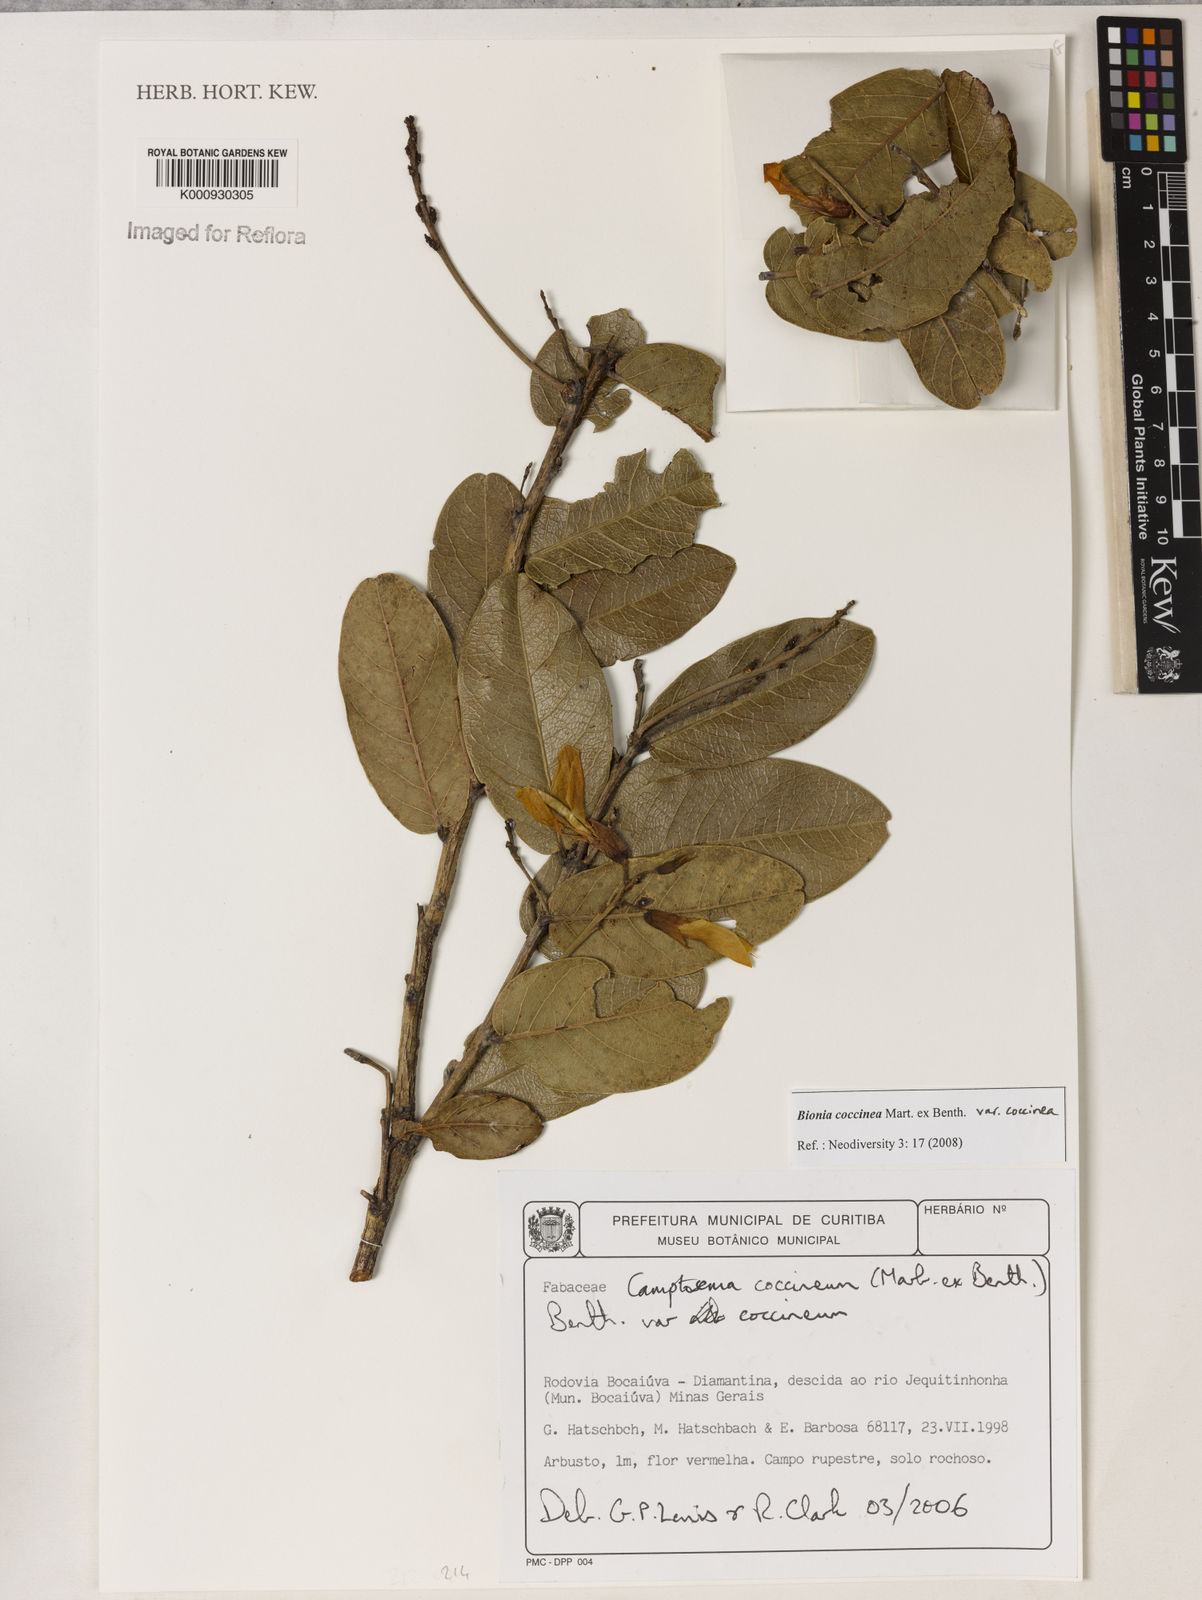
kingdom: Plantae
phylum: Tracheophyta
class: Magnoliopsida
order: Fabales
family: Fabaceae
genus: Camptosema
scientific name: Camptosema coccineum
